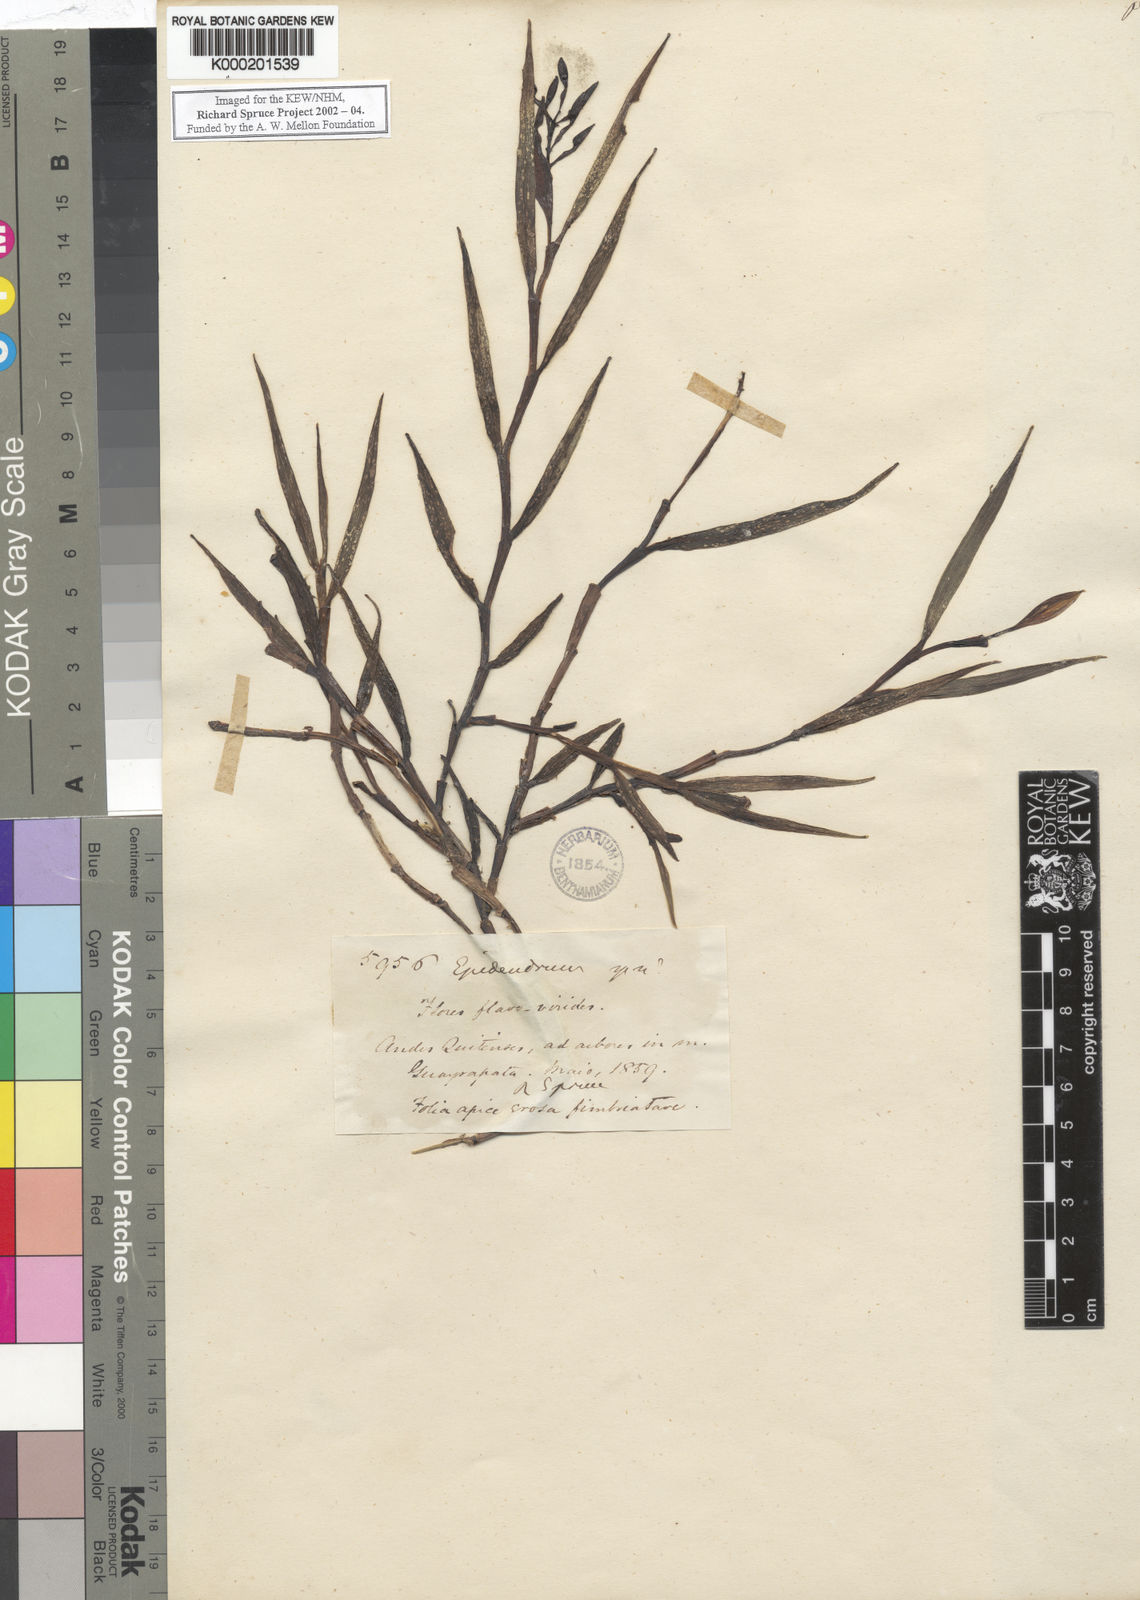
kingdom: Plantae
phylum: Tracheophyta
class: Liliopsida
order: Asparagales
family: Orchidaceae
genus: Epidendrum
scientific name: Epidendrum
